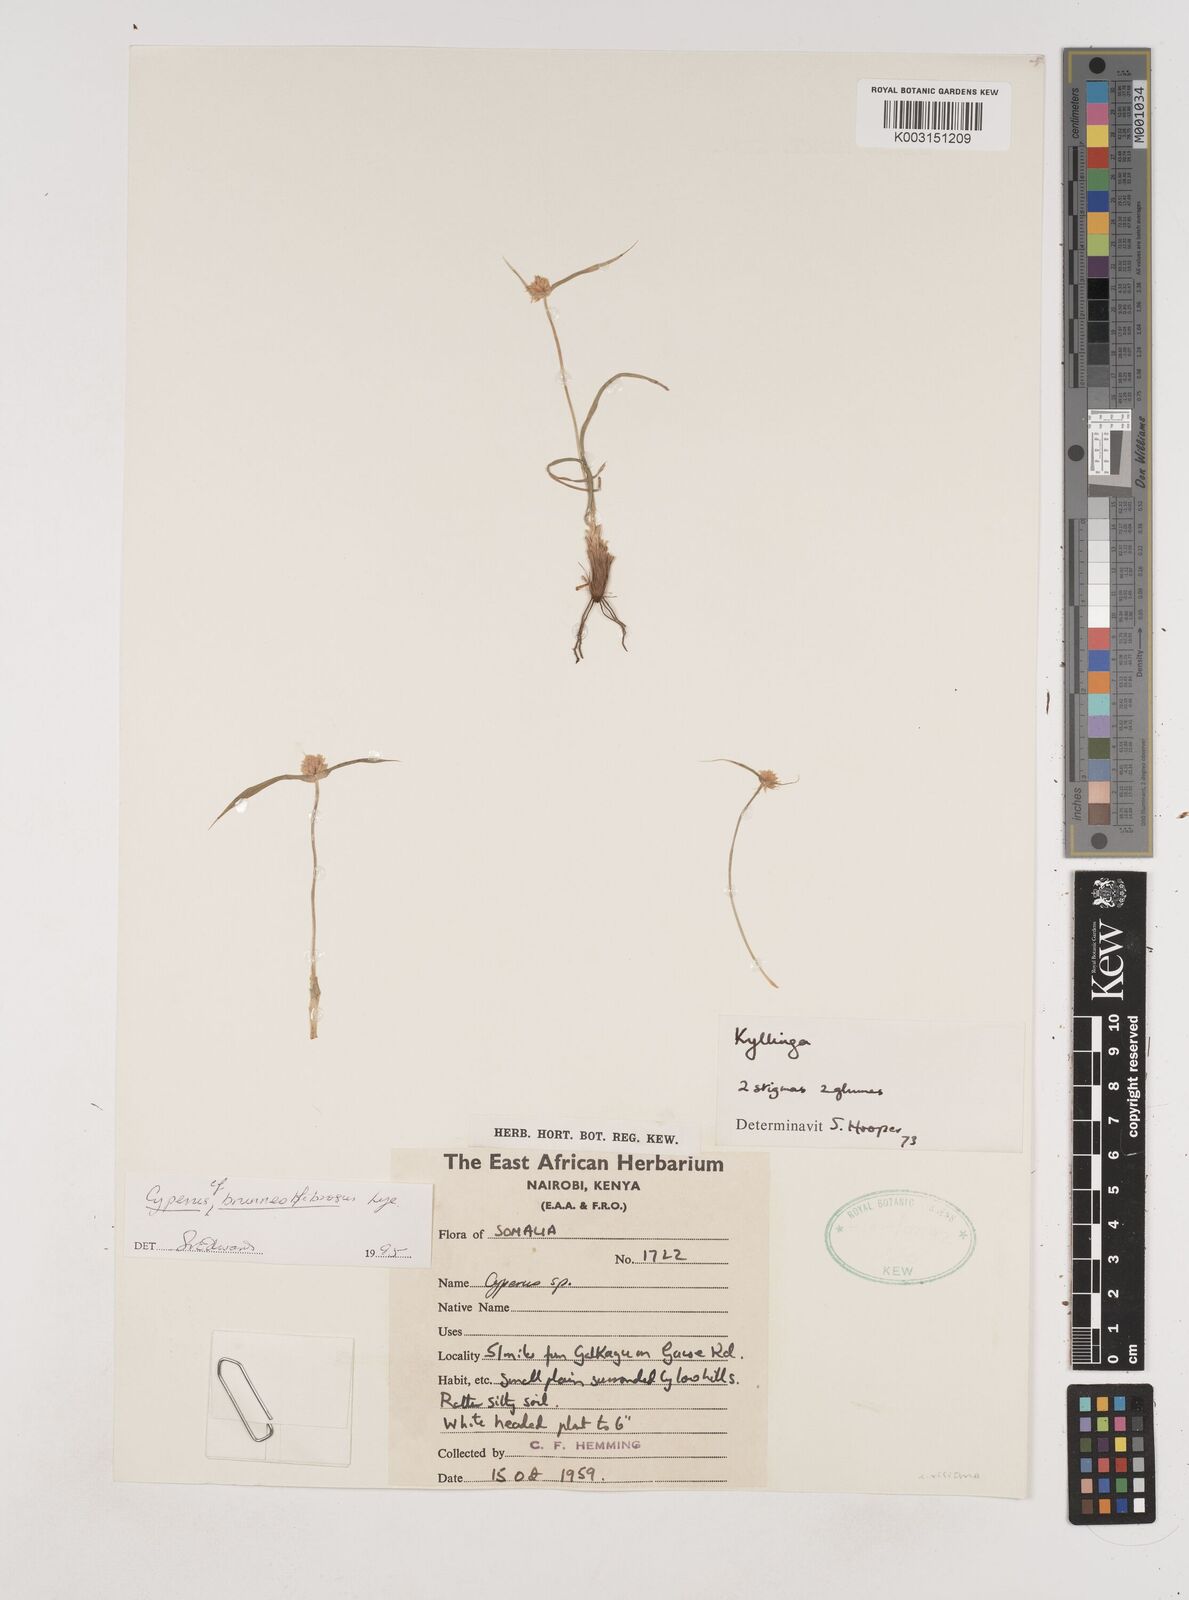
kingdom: Plantae
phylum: Tracheophyta
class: Liliopsida
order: Poales
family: Cyperaceae
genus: Cyperus
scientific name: Cyperus brunneofibrosus
